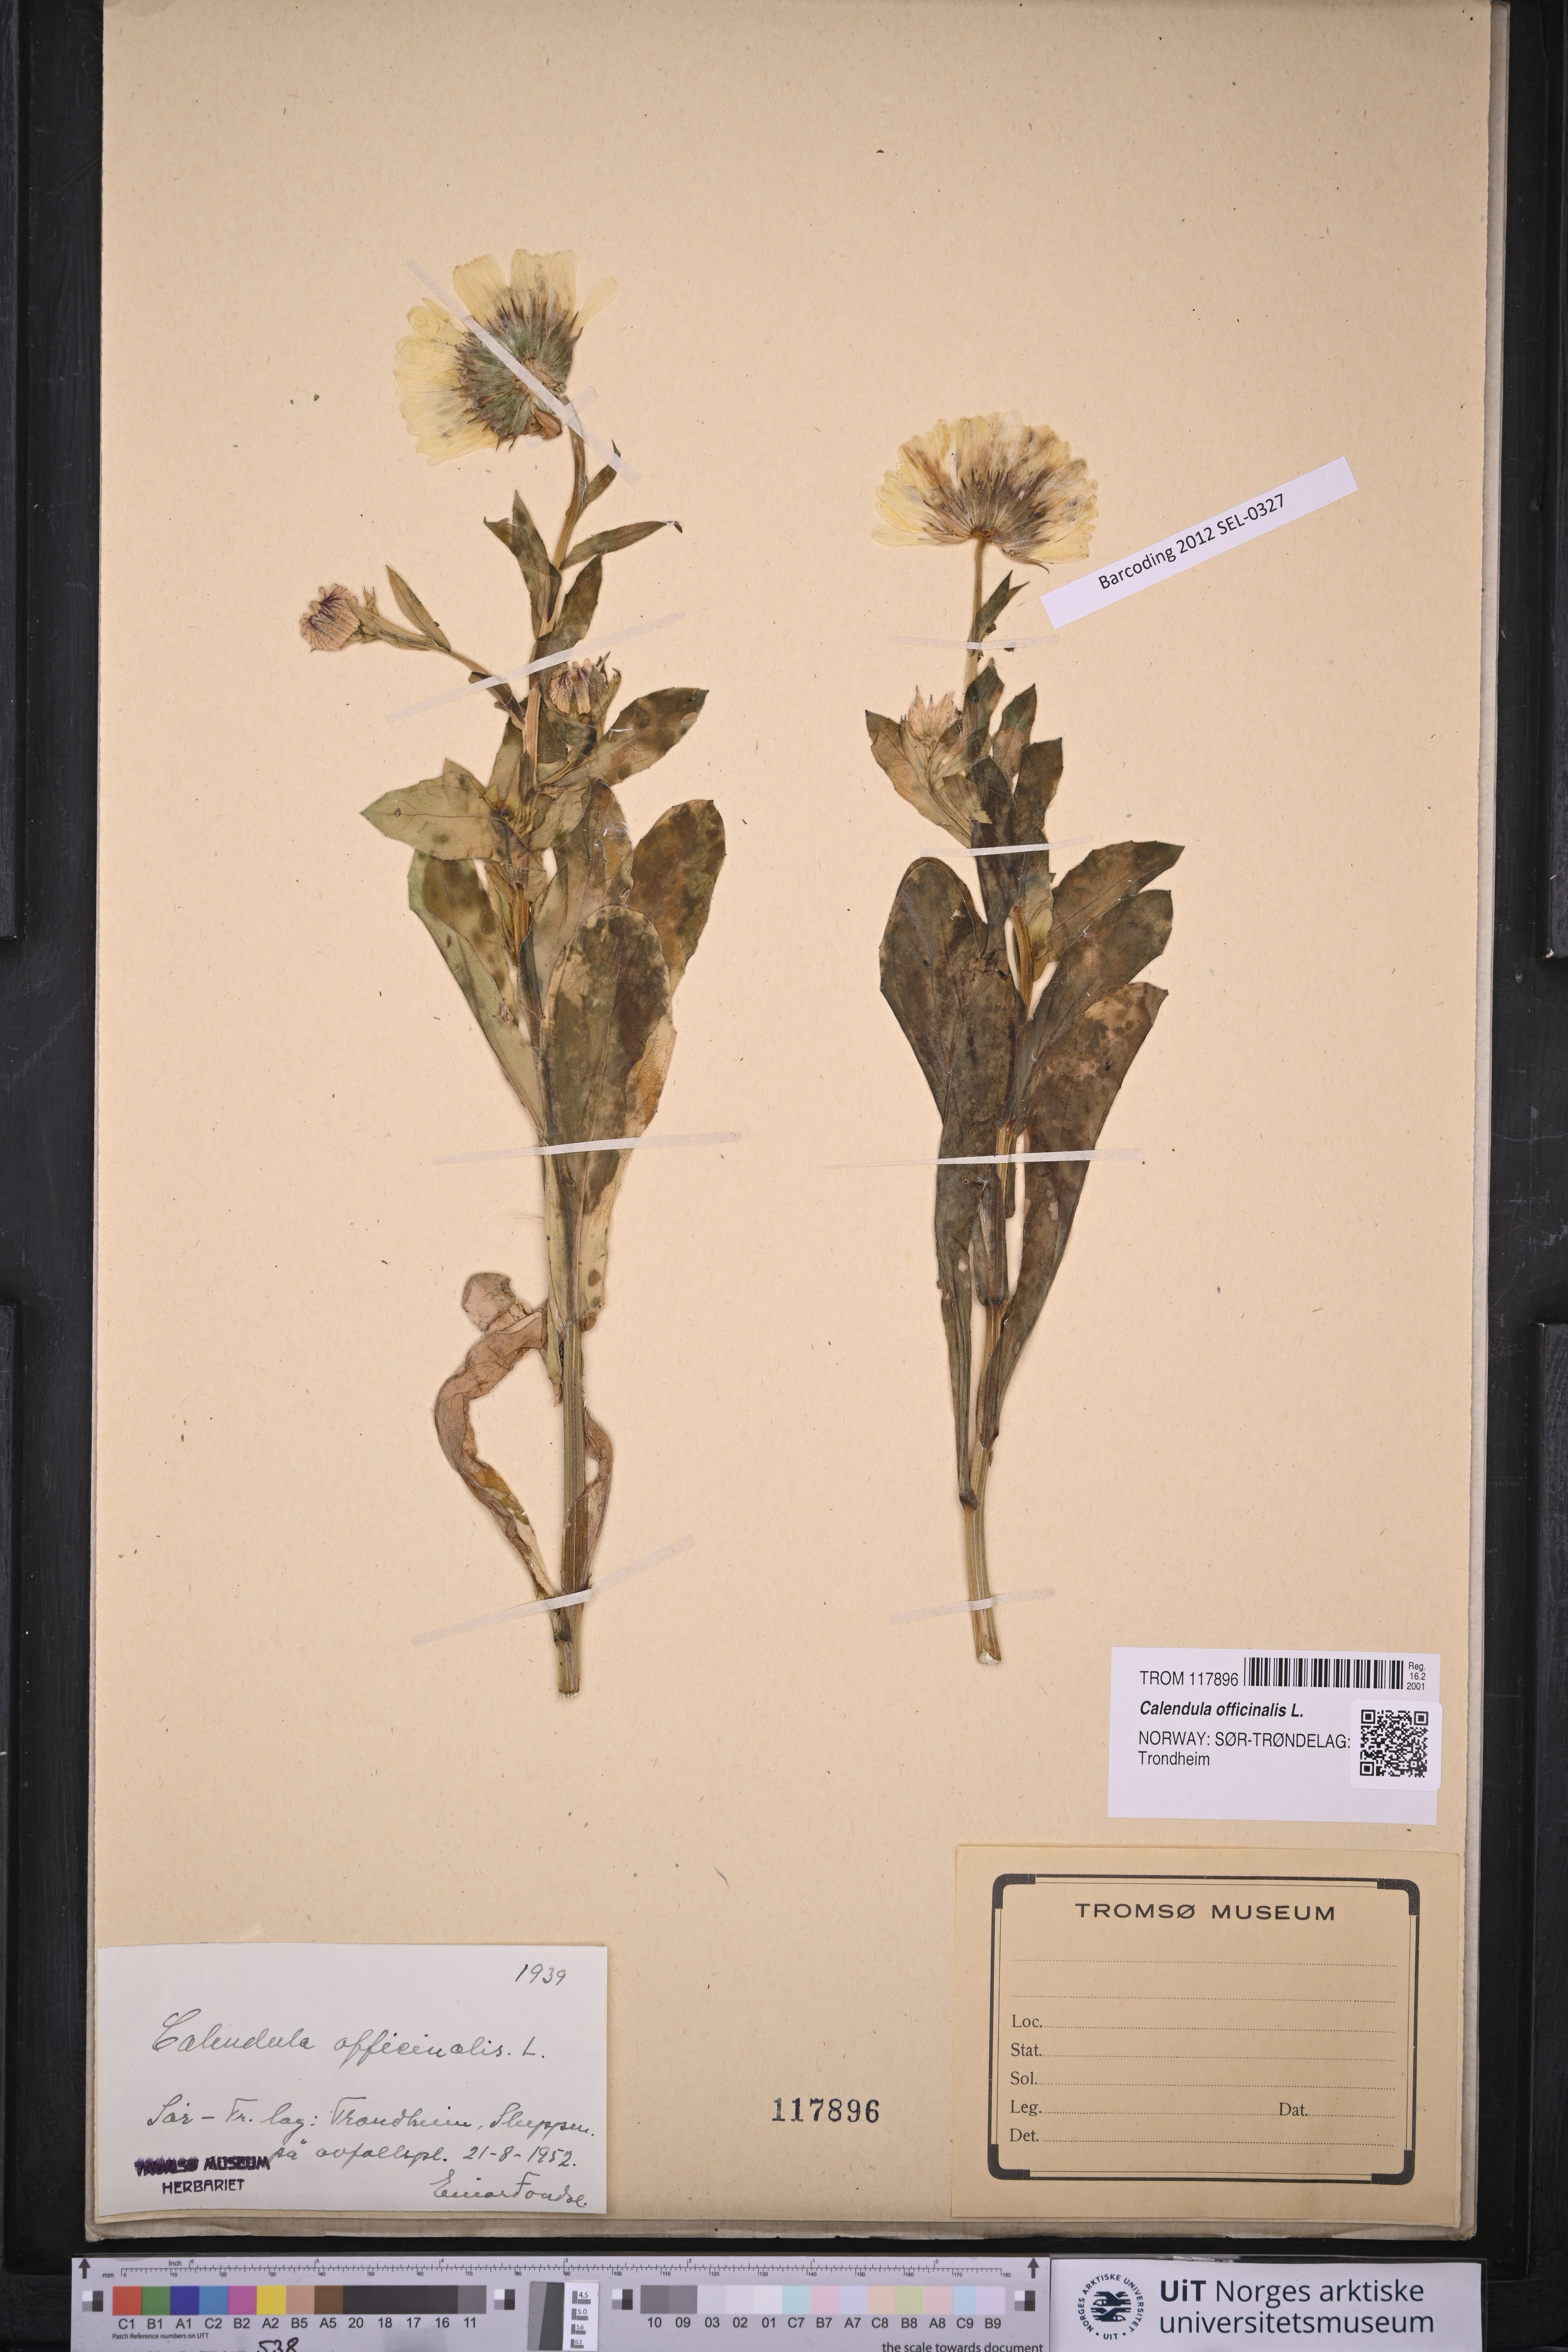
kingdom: Plantae
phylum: Tracheophyta
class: Magnoliopsida
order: Asterales
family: Asteraceae
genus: Calendula
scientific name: Calendula officinalis
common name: Pot marigold
